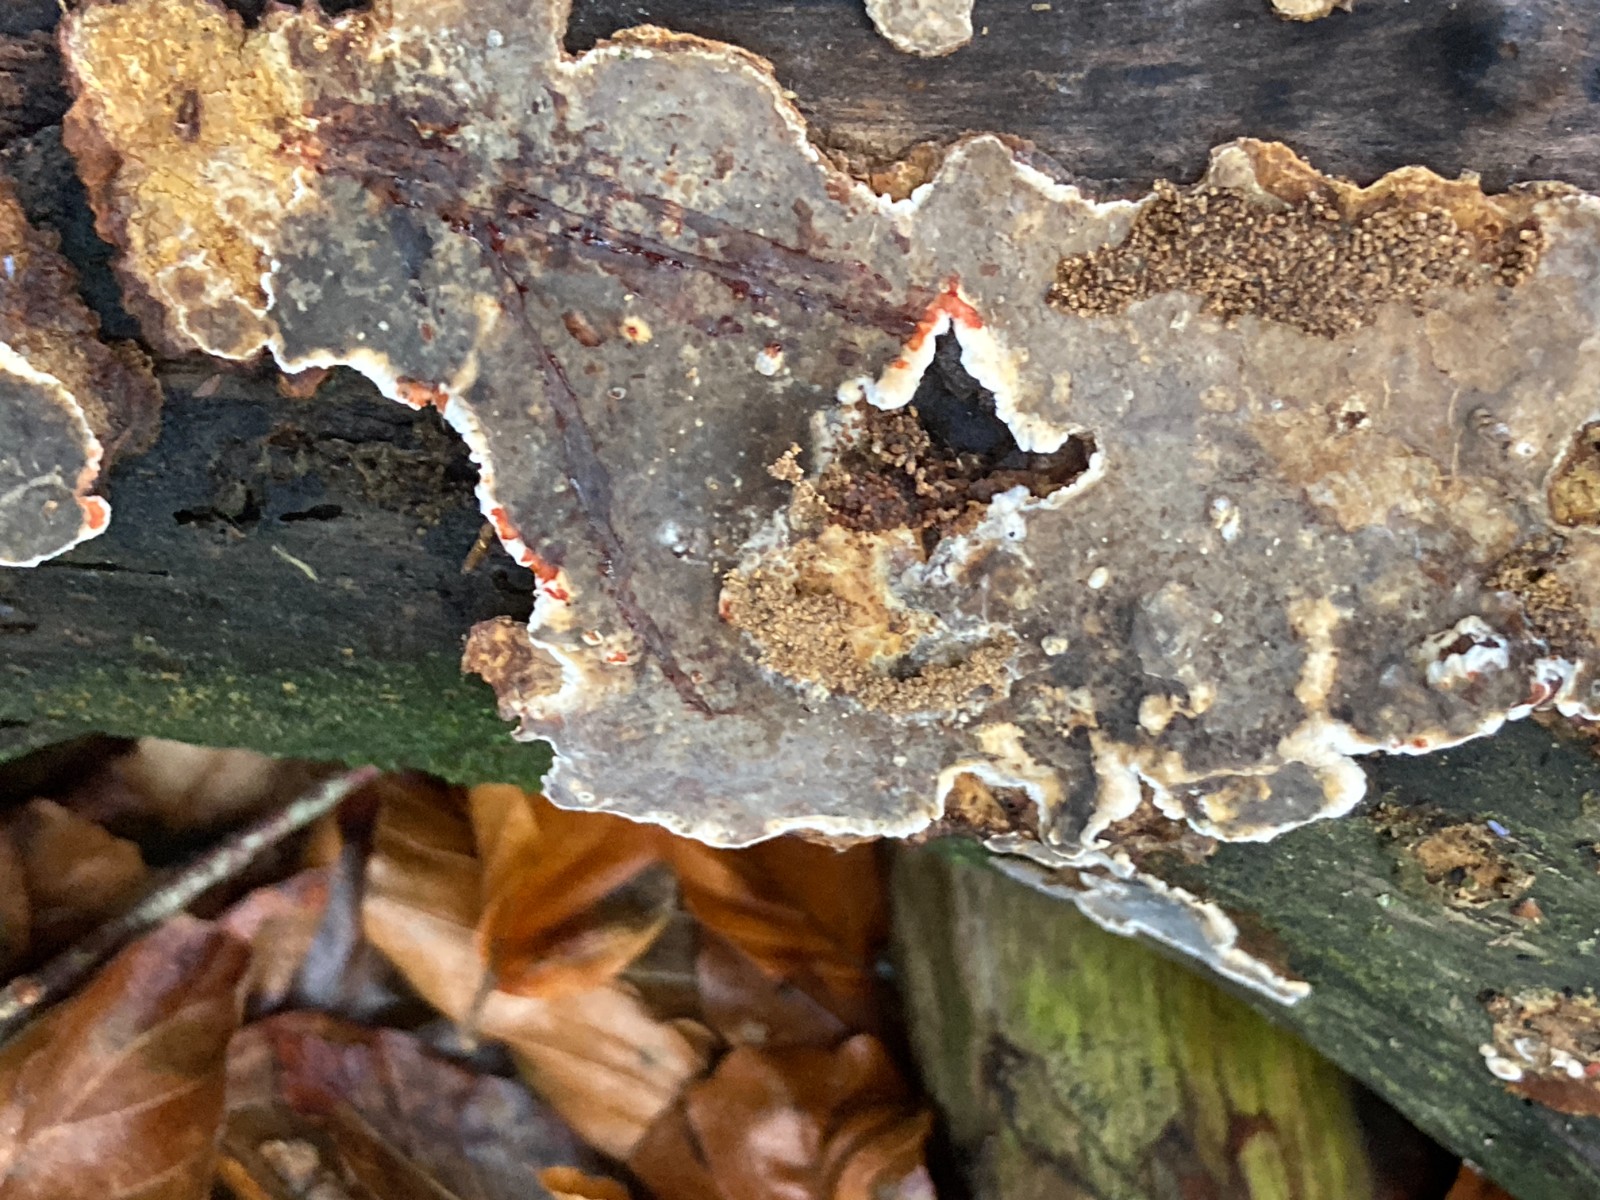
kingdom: Fungi
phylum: Basidiomycota
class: Agaricomycetes
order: Russulales
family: Stereaceae
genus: Stereum
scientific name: Stereum rugosum
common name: rynket lædersvamp
